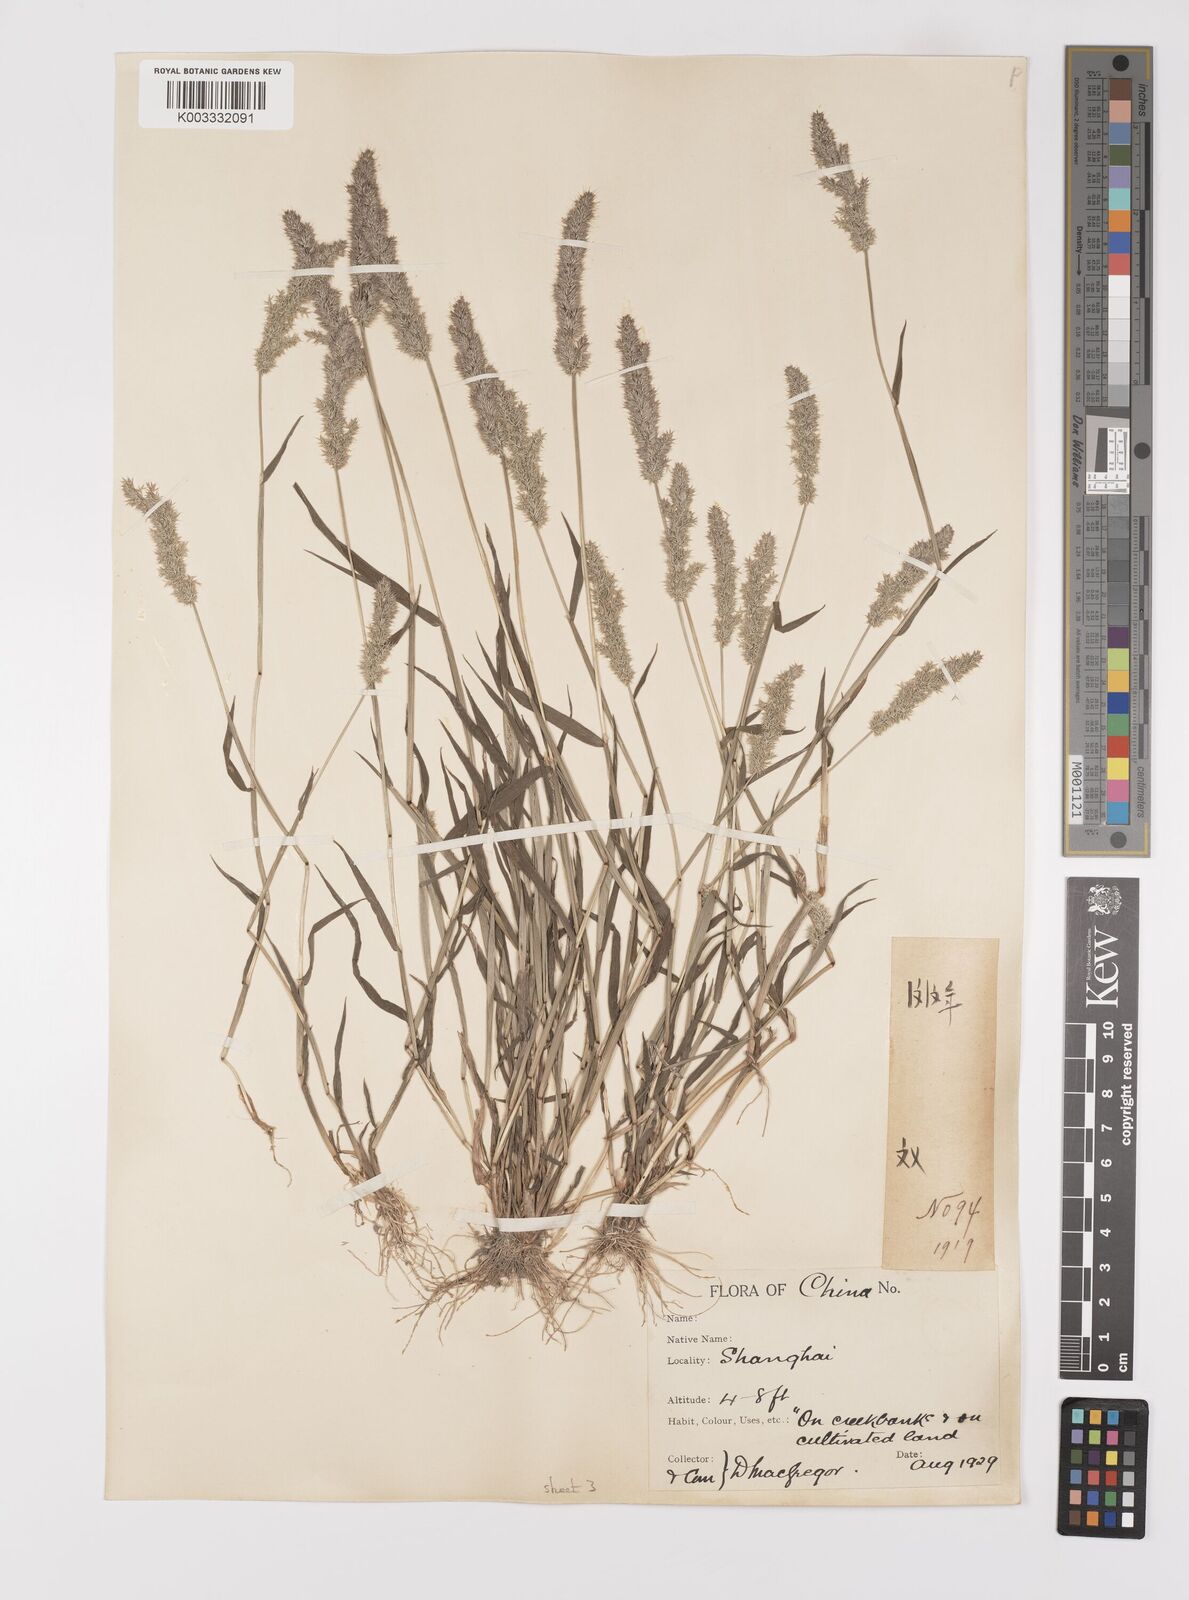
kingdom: Plantae
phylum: Tracheophyta
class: Liliopsida
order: Poales
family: Poaceae
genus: Polypogon
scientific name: Polypogon fugax
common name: Asia minor bluegrass
